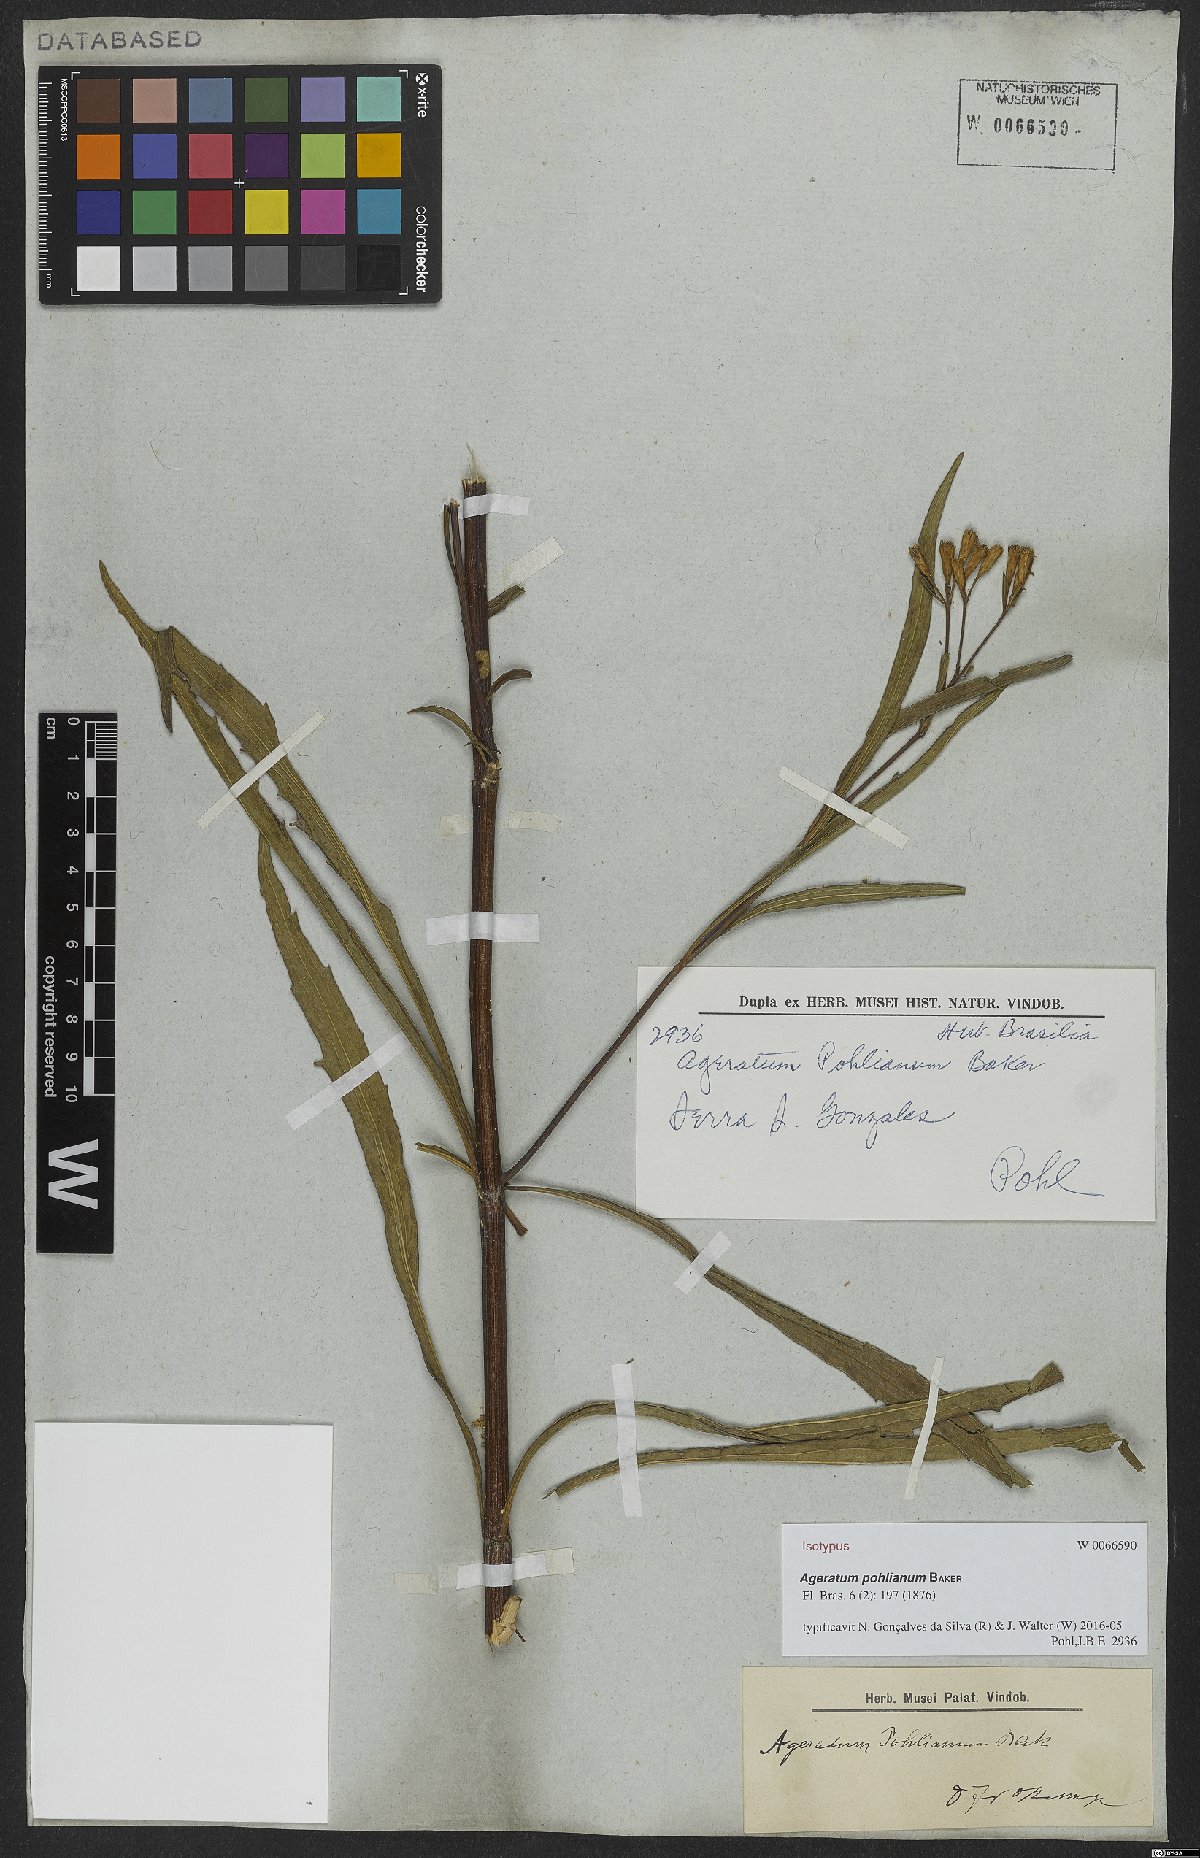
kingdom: Plantae
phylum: Tracheophyta
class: Magnoliopsida
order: Asterales
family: Asteraceae
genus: Ageratum
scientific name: Ageratum pohlianum
